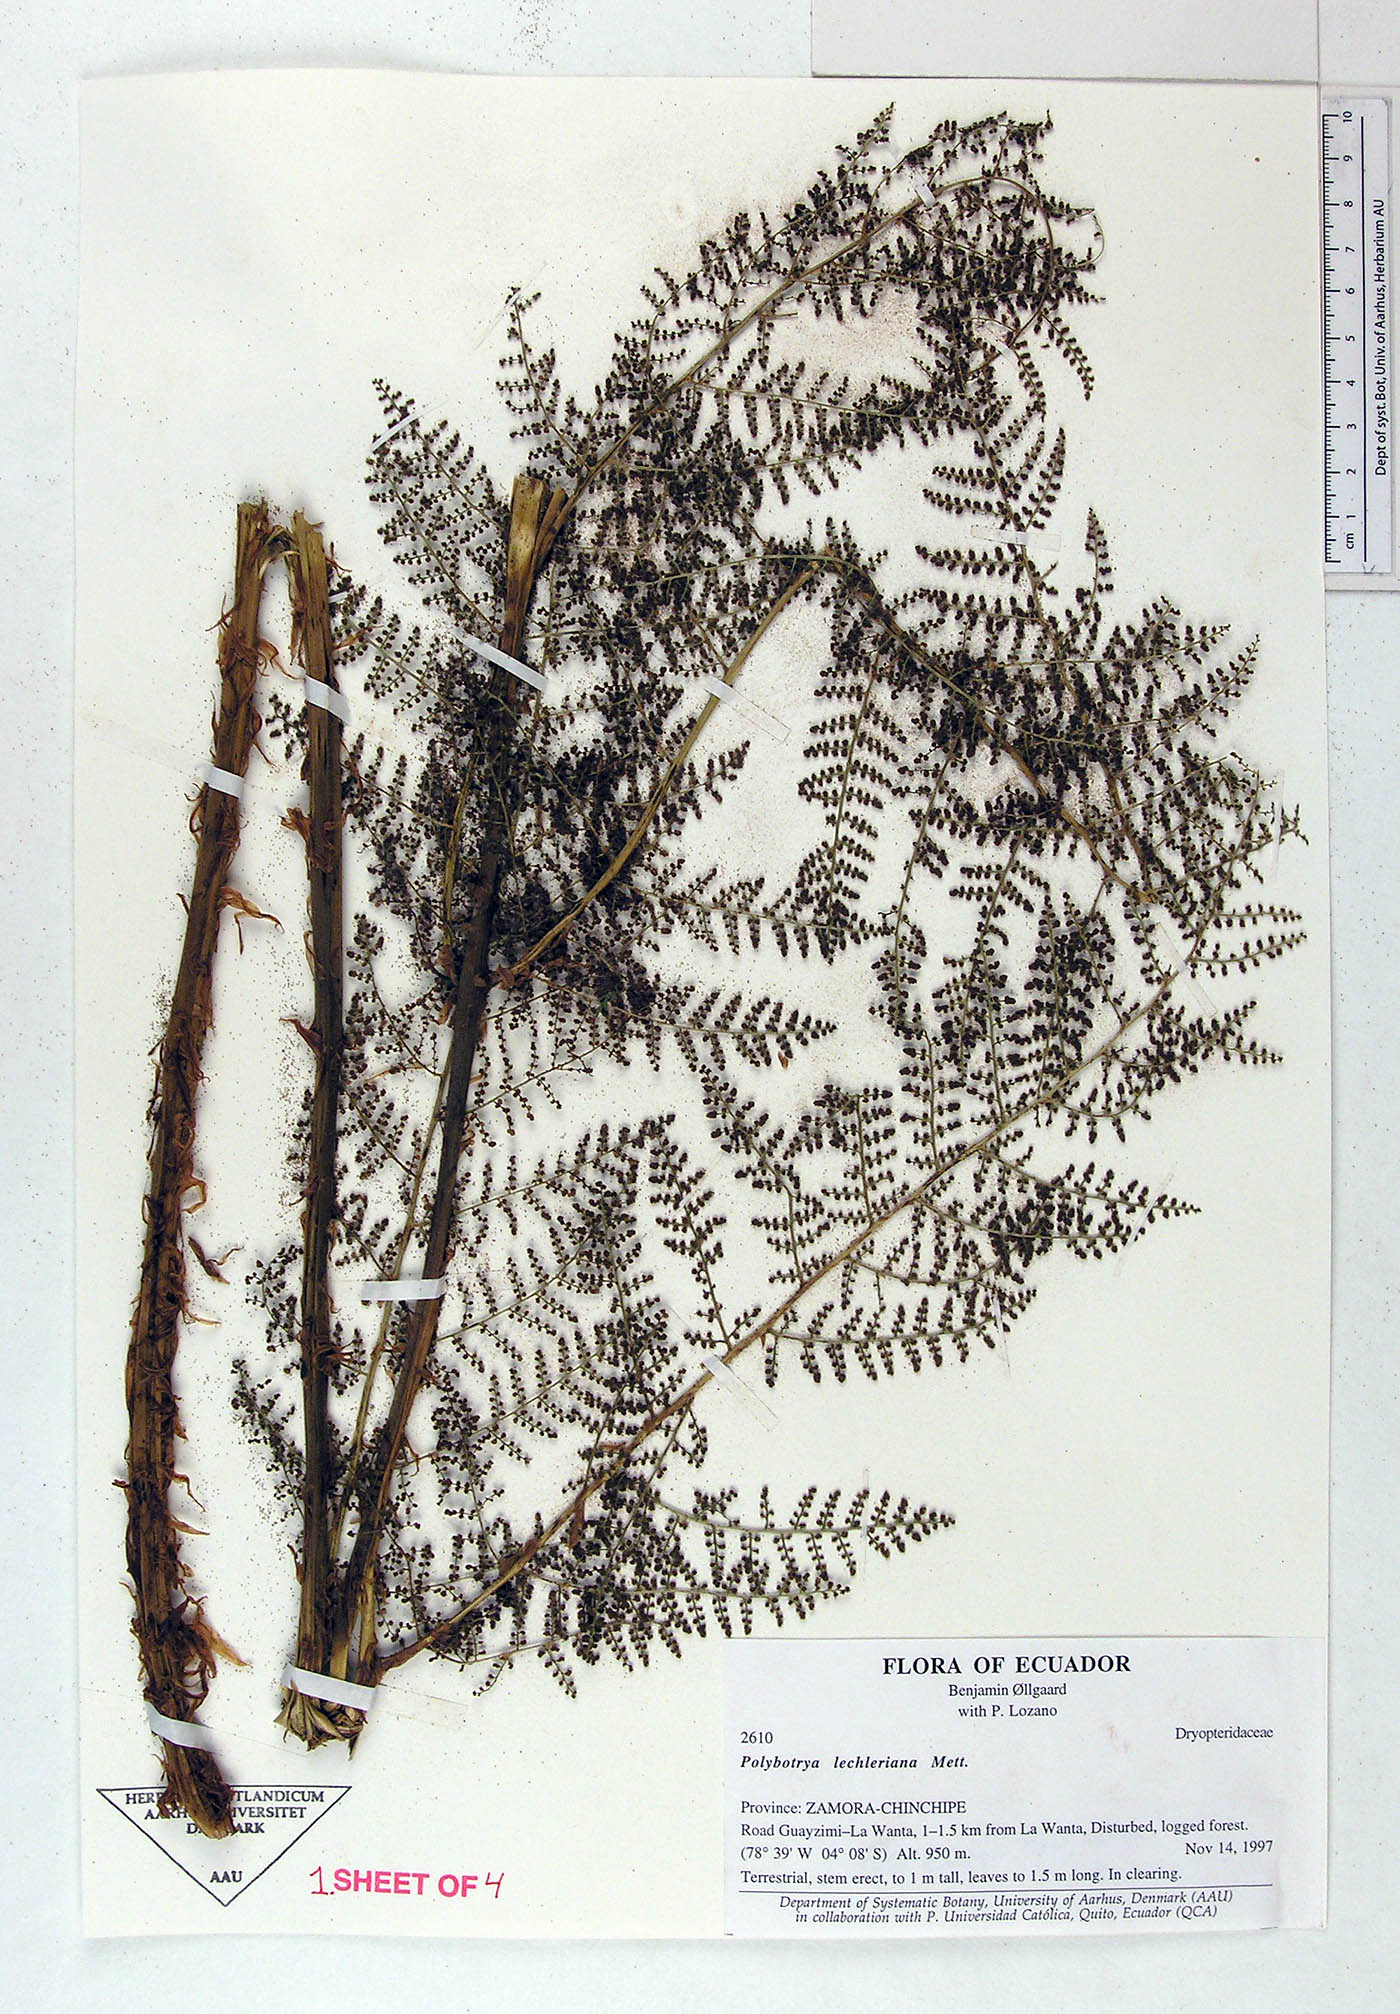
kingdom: Plantae
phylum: Tracheophyta
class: Polypodiopsida
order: Polypodiales
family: Dryopteridaceae
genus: Polybotrya
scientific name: Polybotrya
